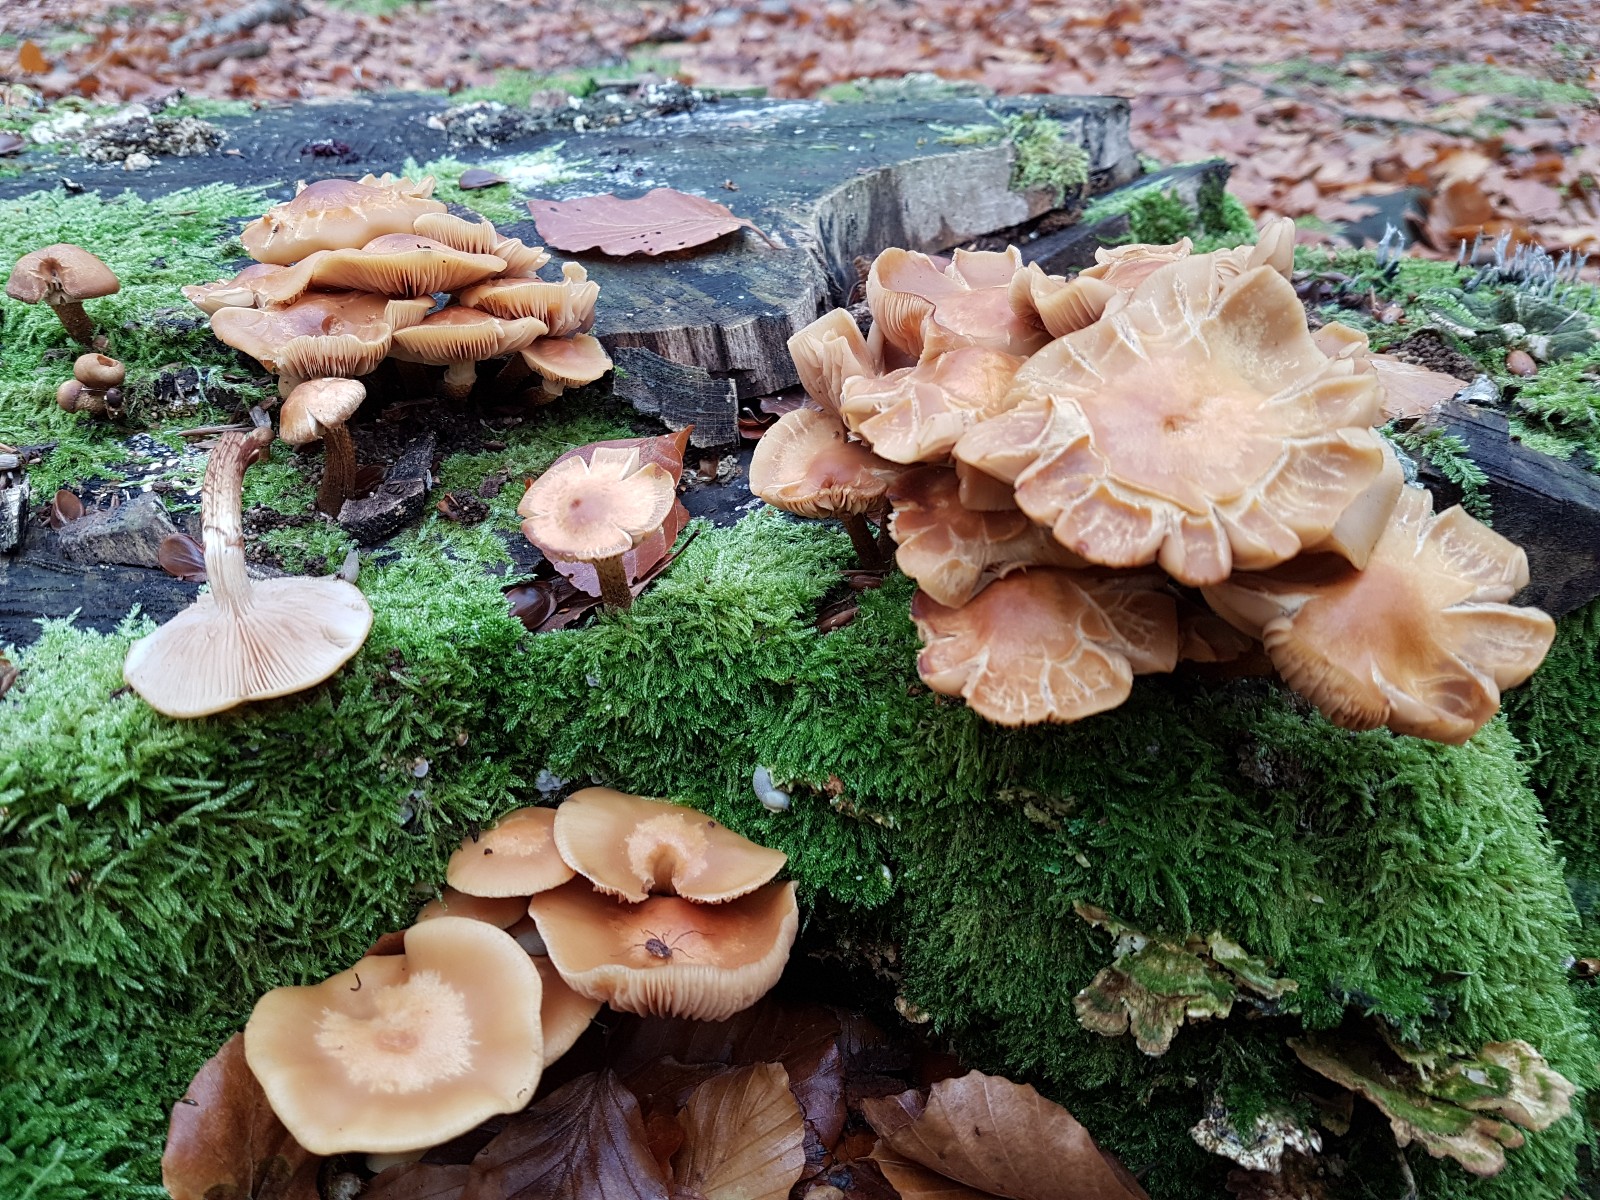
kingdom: Fungi
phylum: Basidiomycota
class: Agaricomycetes
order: Agaricales
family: Strophariaceae
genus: Kuehneromyces
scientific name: Kuehneromyces mutabilis
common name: foranderlig skælhat
